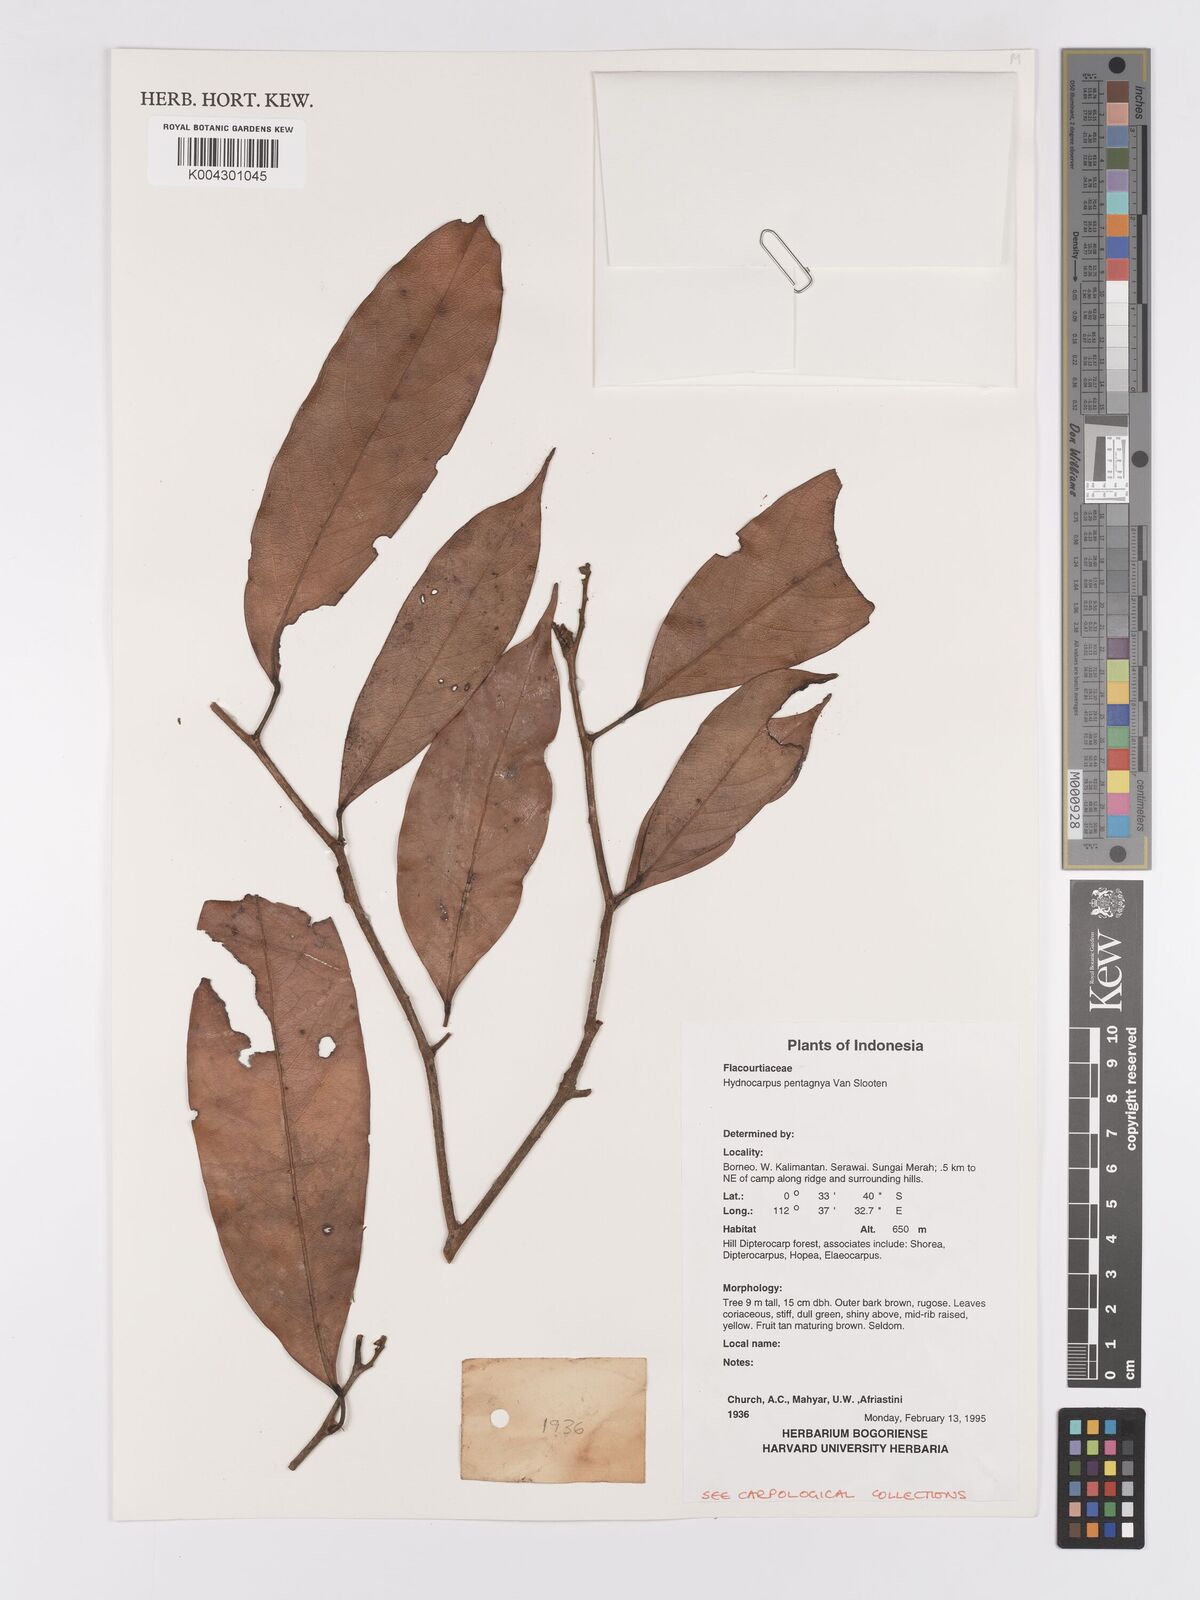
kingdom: Plantae
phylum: Tracheophyta
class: Magnoliopsida
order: Malpighiales
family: Achariaceae
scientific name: Achariaceae
